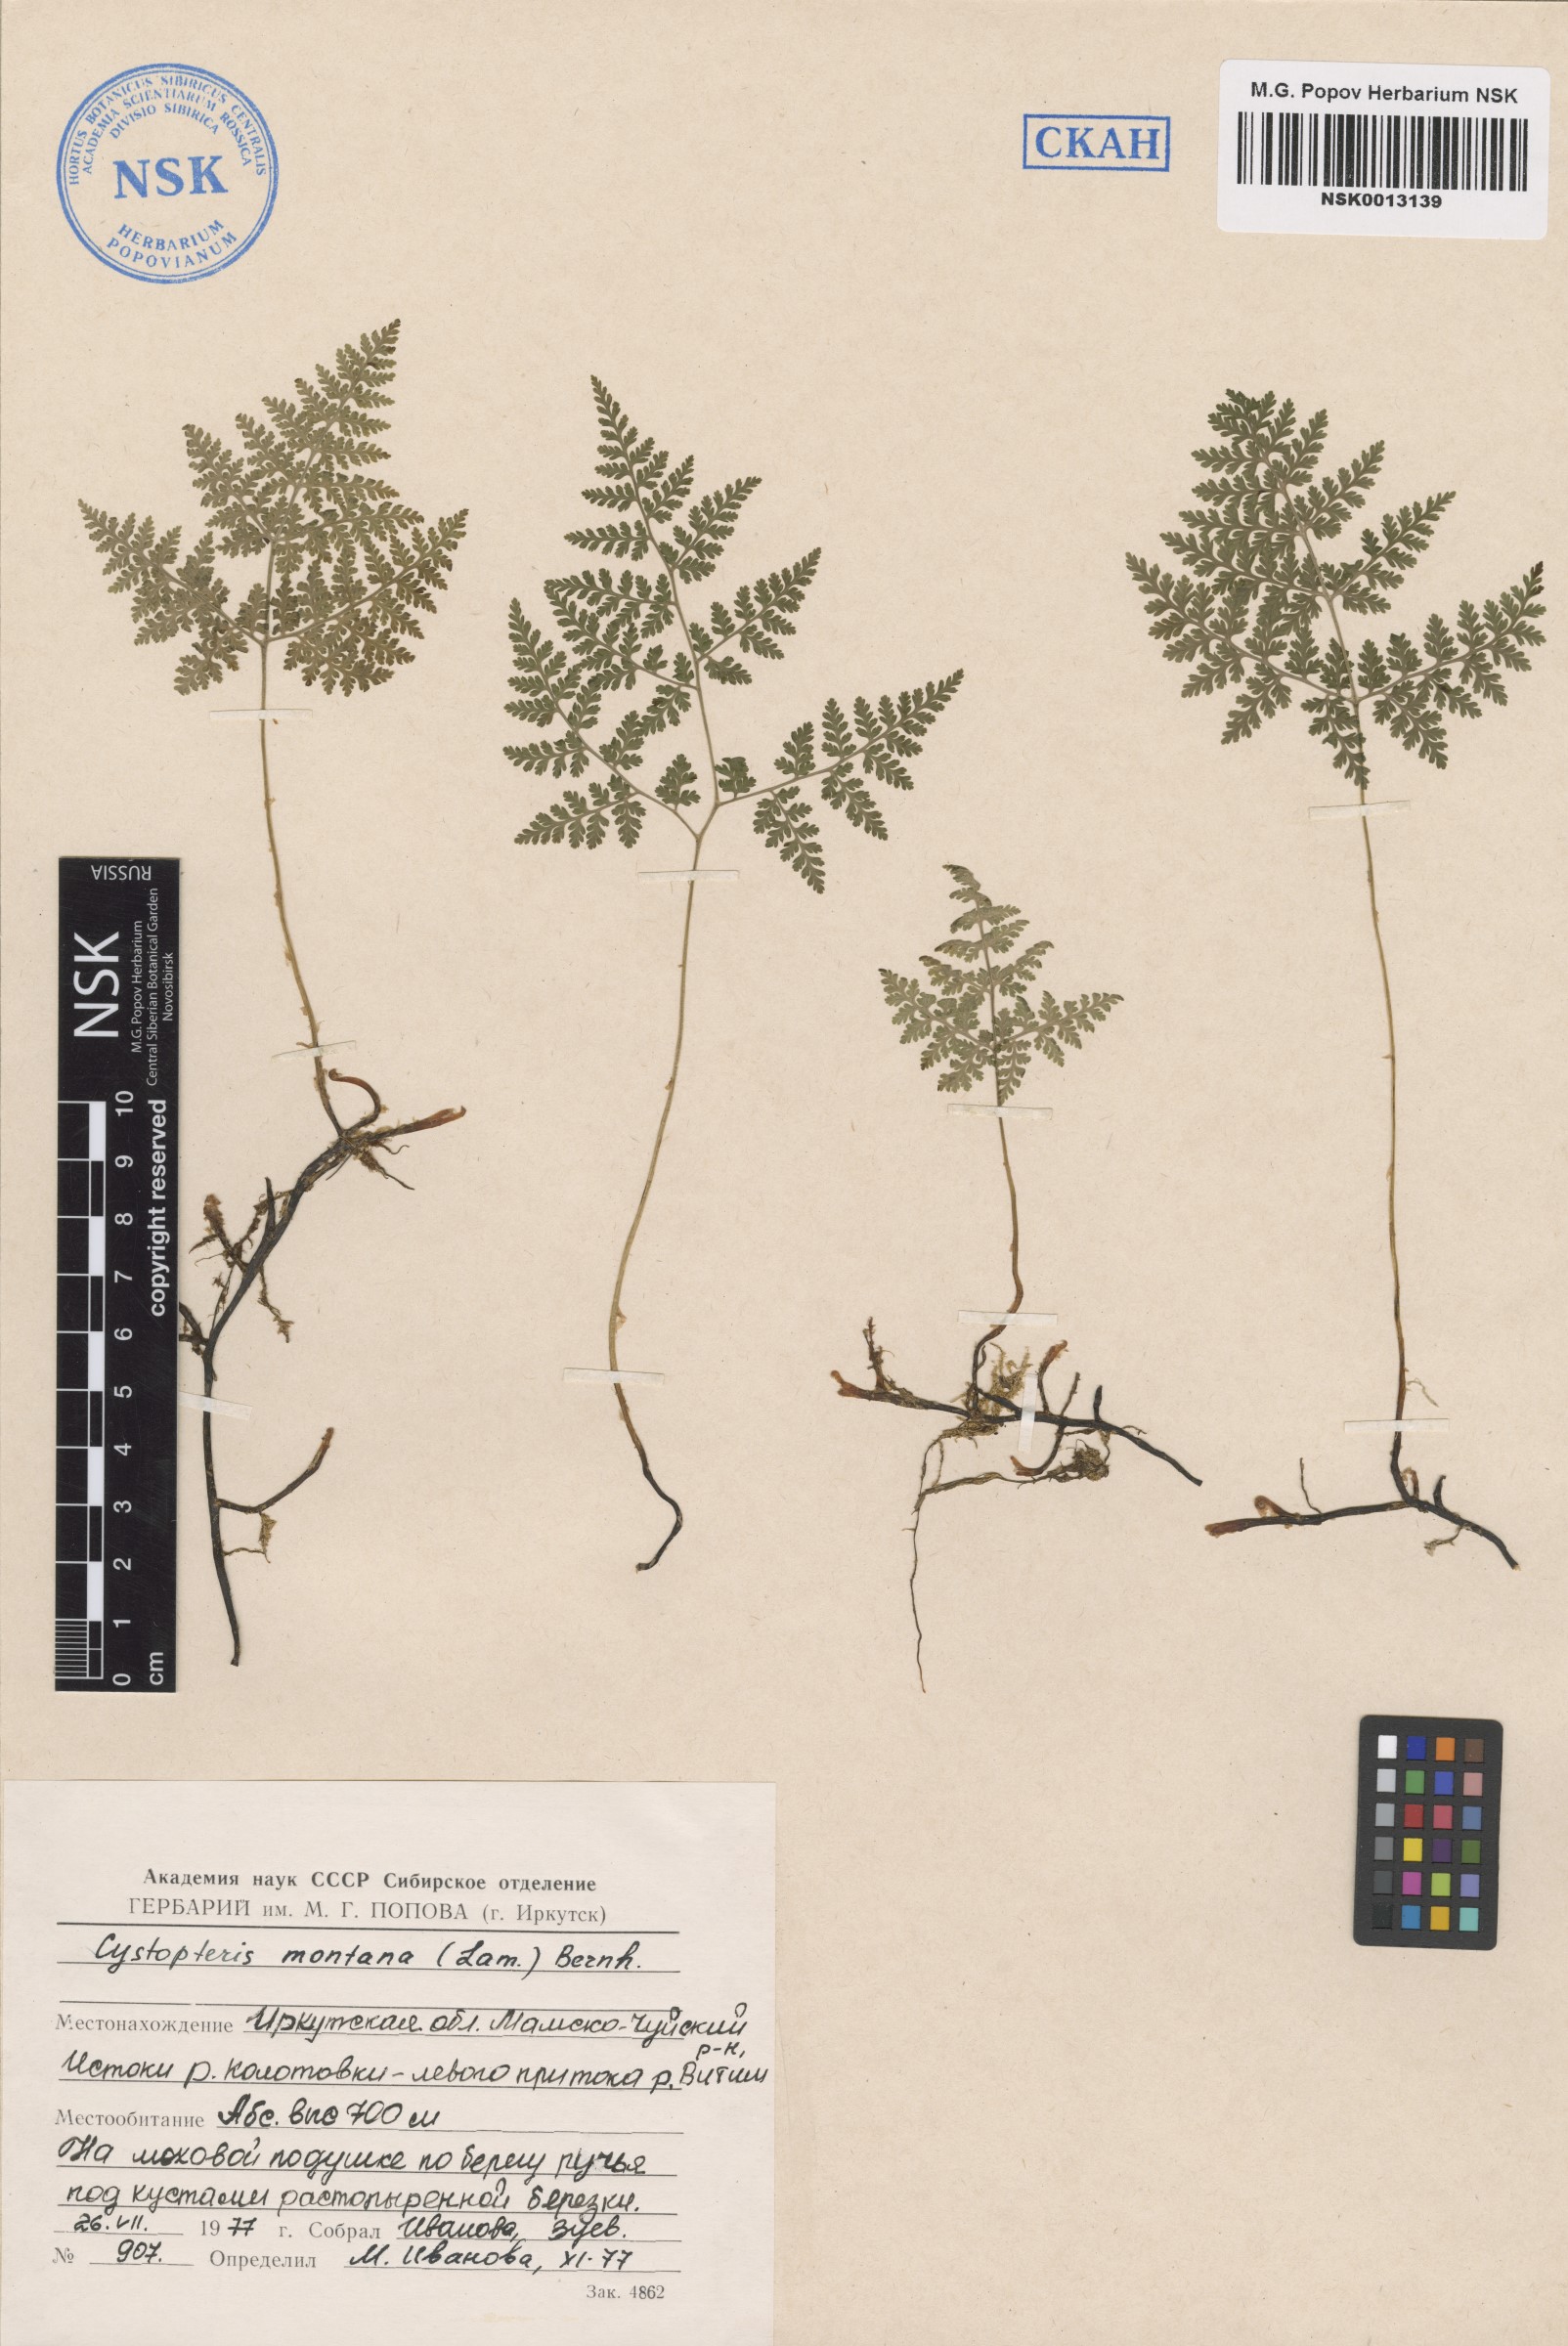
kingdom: Plantae
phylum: Tracheophyta
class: Polypodiopsida
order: Polypodiales
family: Cystopteridaceae
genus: Cystopteris
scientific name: Cystopteris montana
